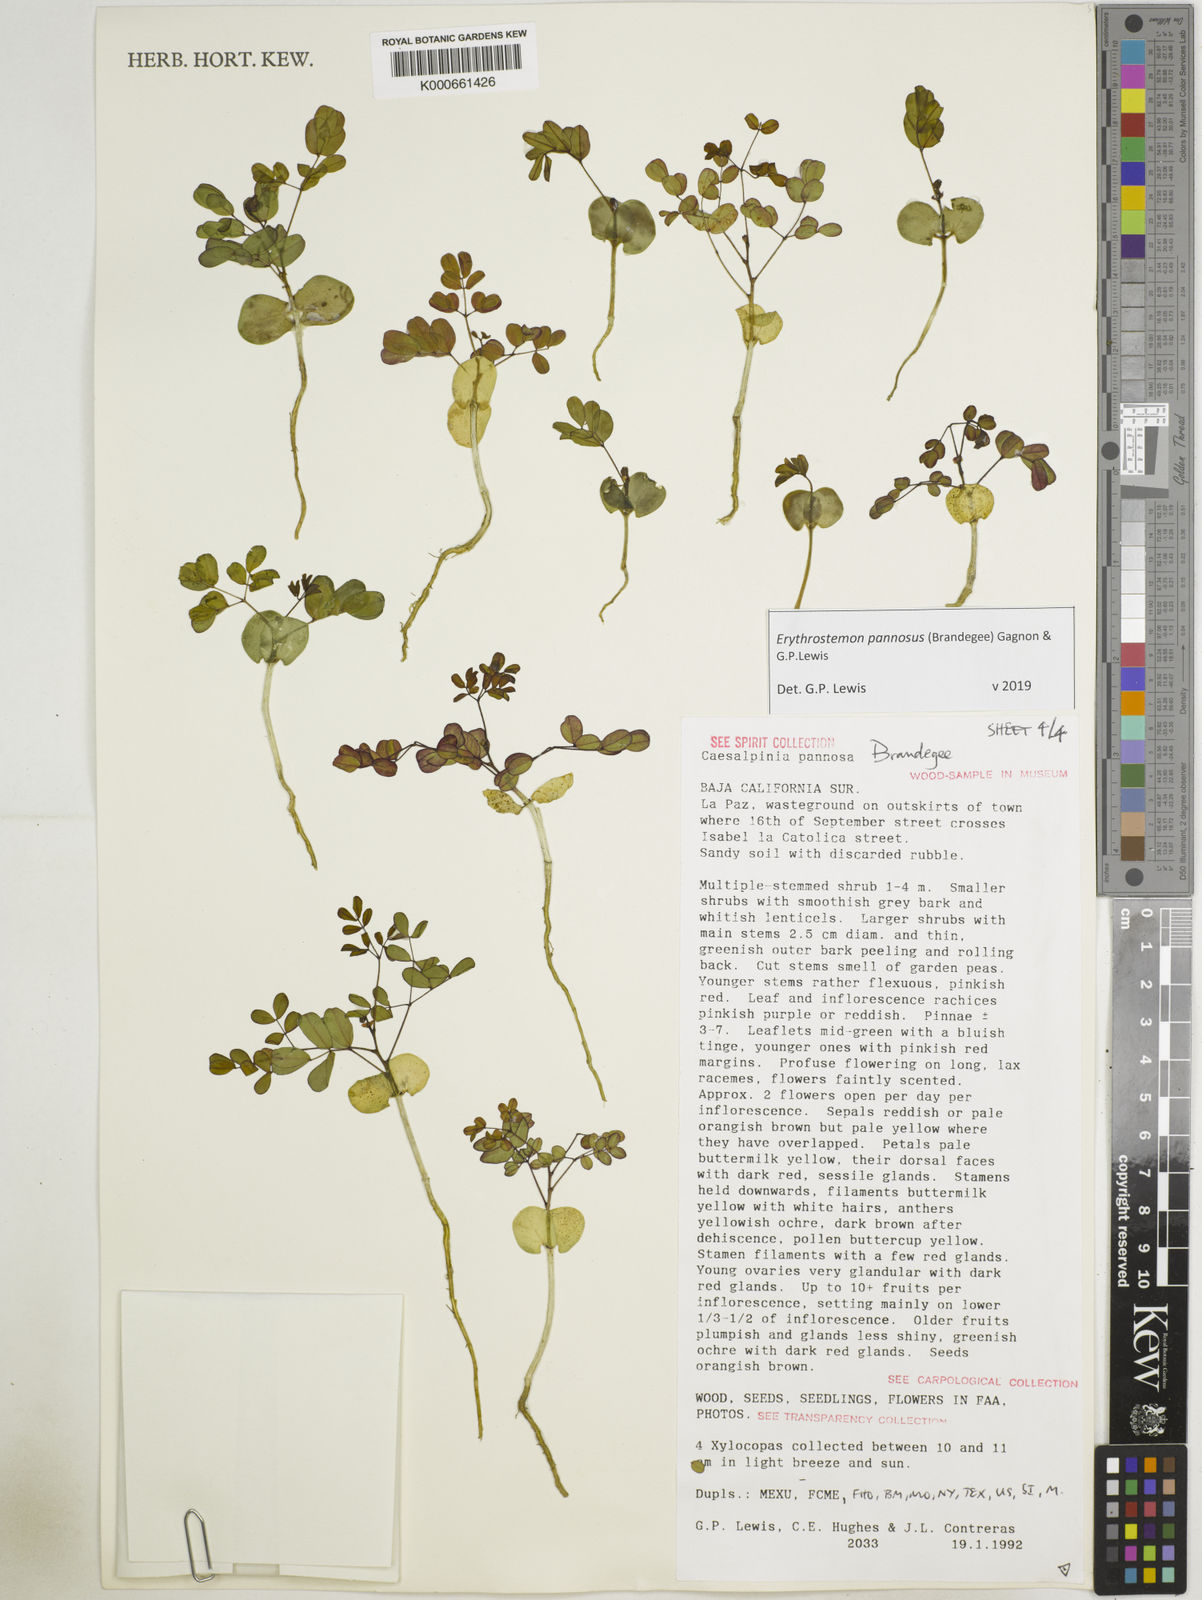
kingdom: Plantae
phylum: Tracheophyta
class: Magnoliopsida
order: Fabales
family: Fabaceae
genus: Erythrostemon
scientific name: Erythrostemon pannosus
